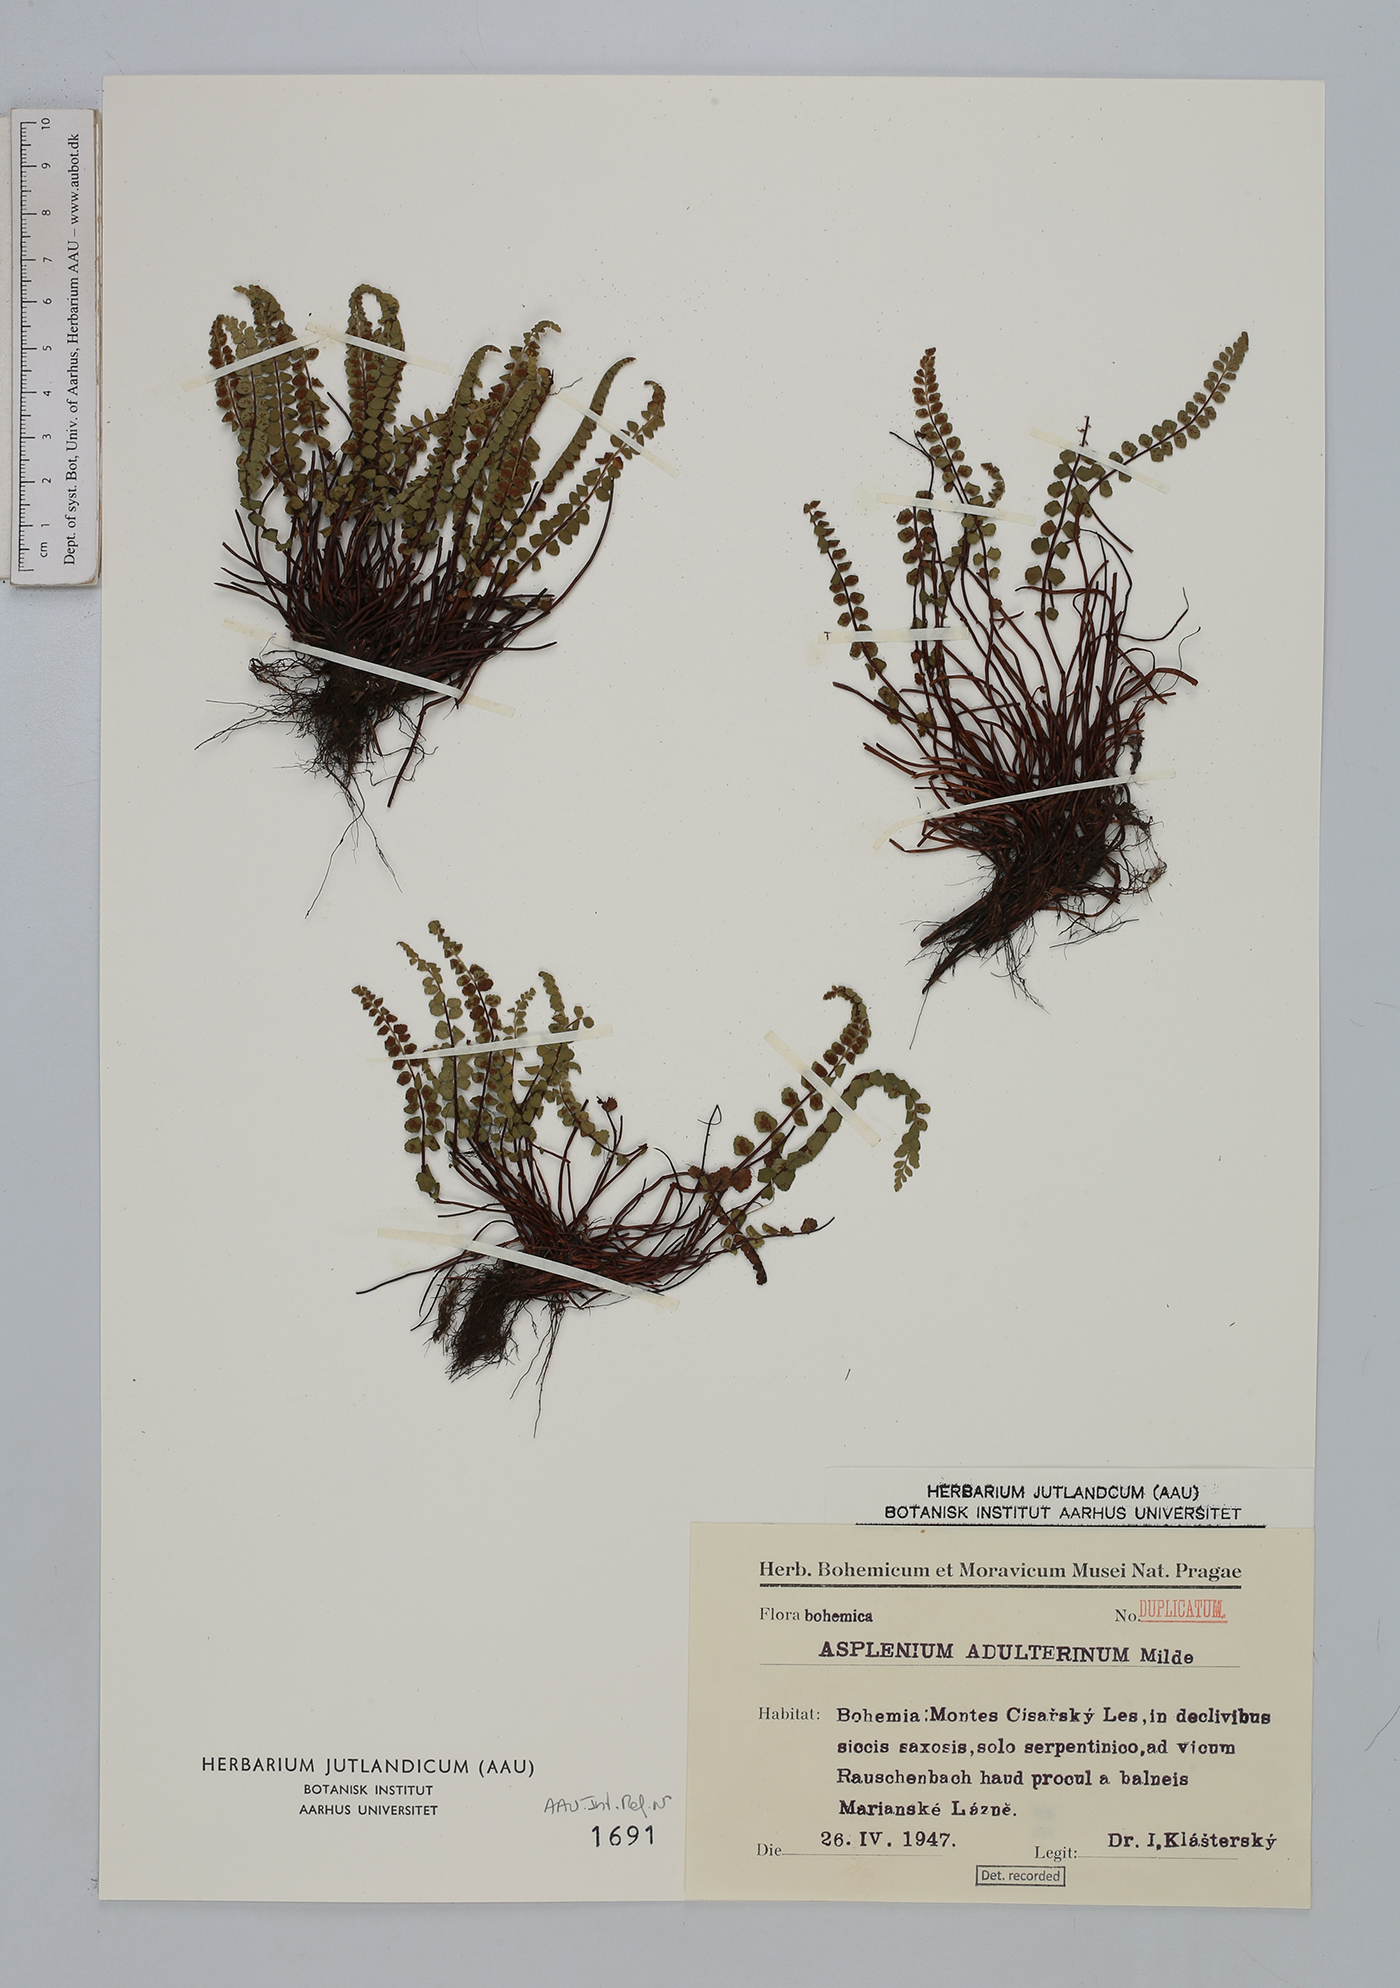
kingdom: Plantae
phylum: Tracheophyta
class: Polypodiopsida
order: Polypodiales
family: Aspleniaceae
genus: Asplenium
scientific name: Asplenium adulterinum
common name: Adulterated spleenwort
